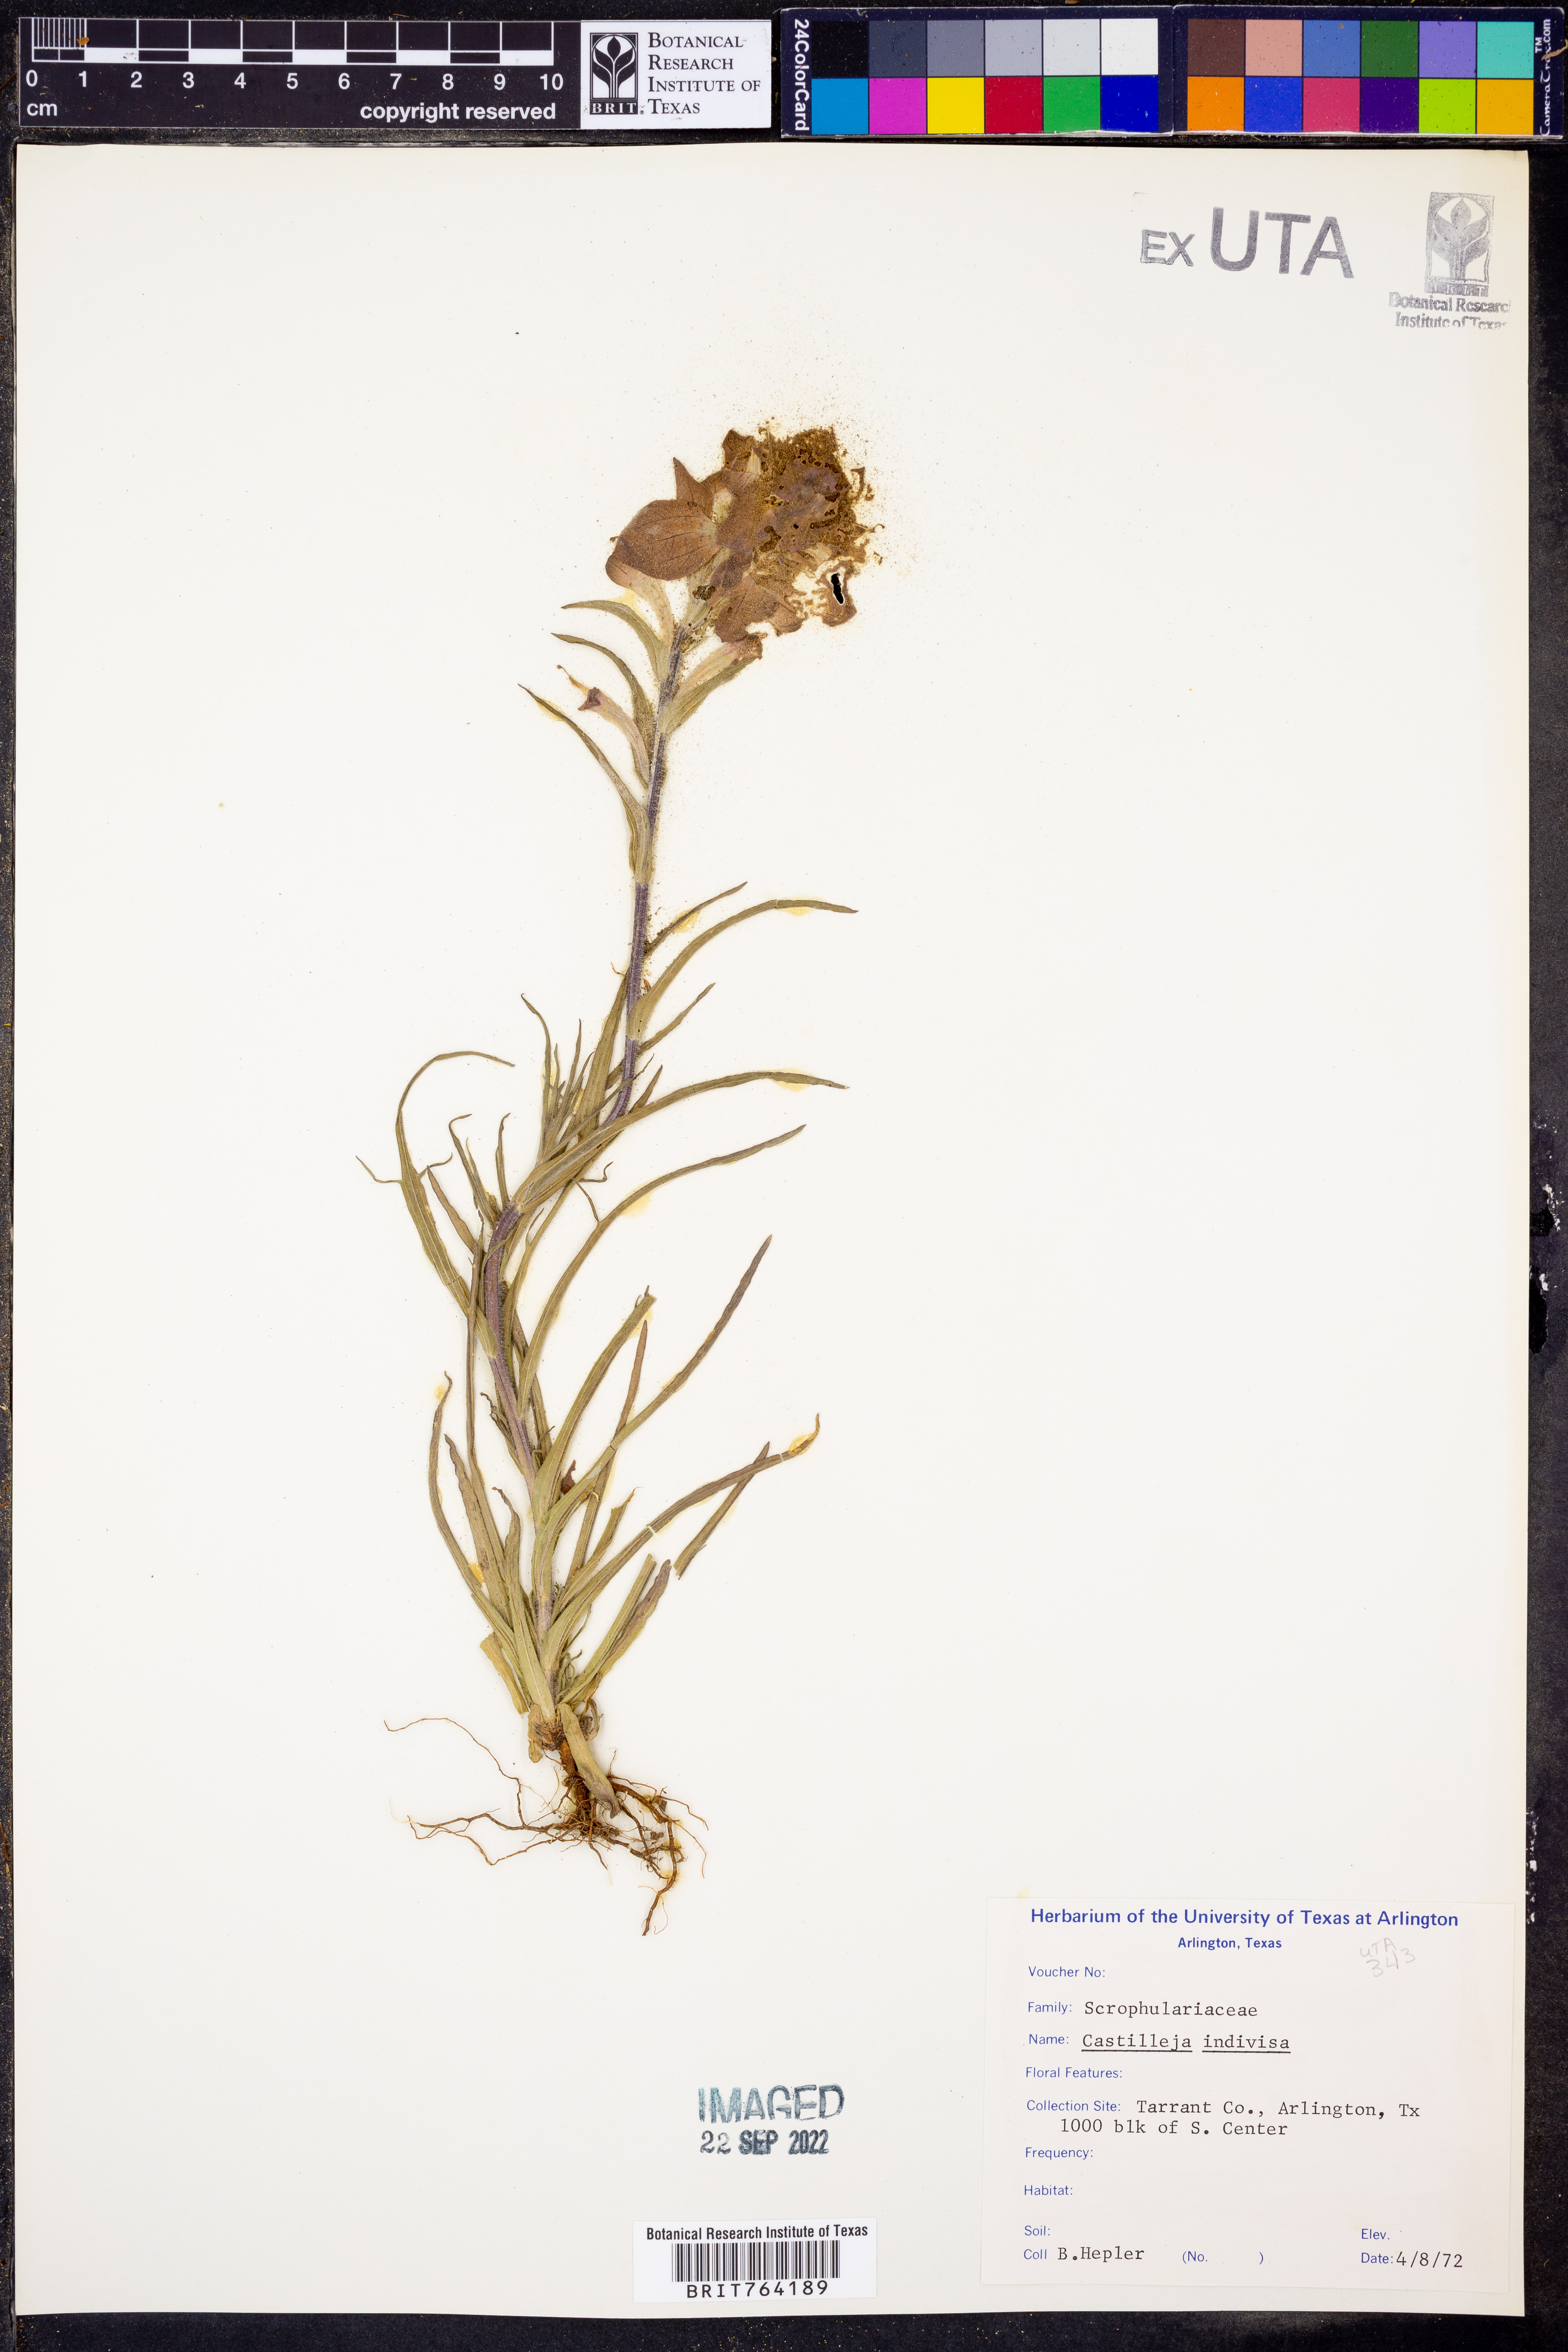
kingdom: Plantae
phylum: Tracheophyta
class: Magnoliopsida
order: Lamiales
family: Orobanchaceae
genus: Castilleja
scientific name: Castilleja indivisa
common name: Texas paintbrush
